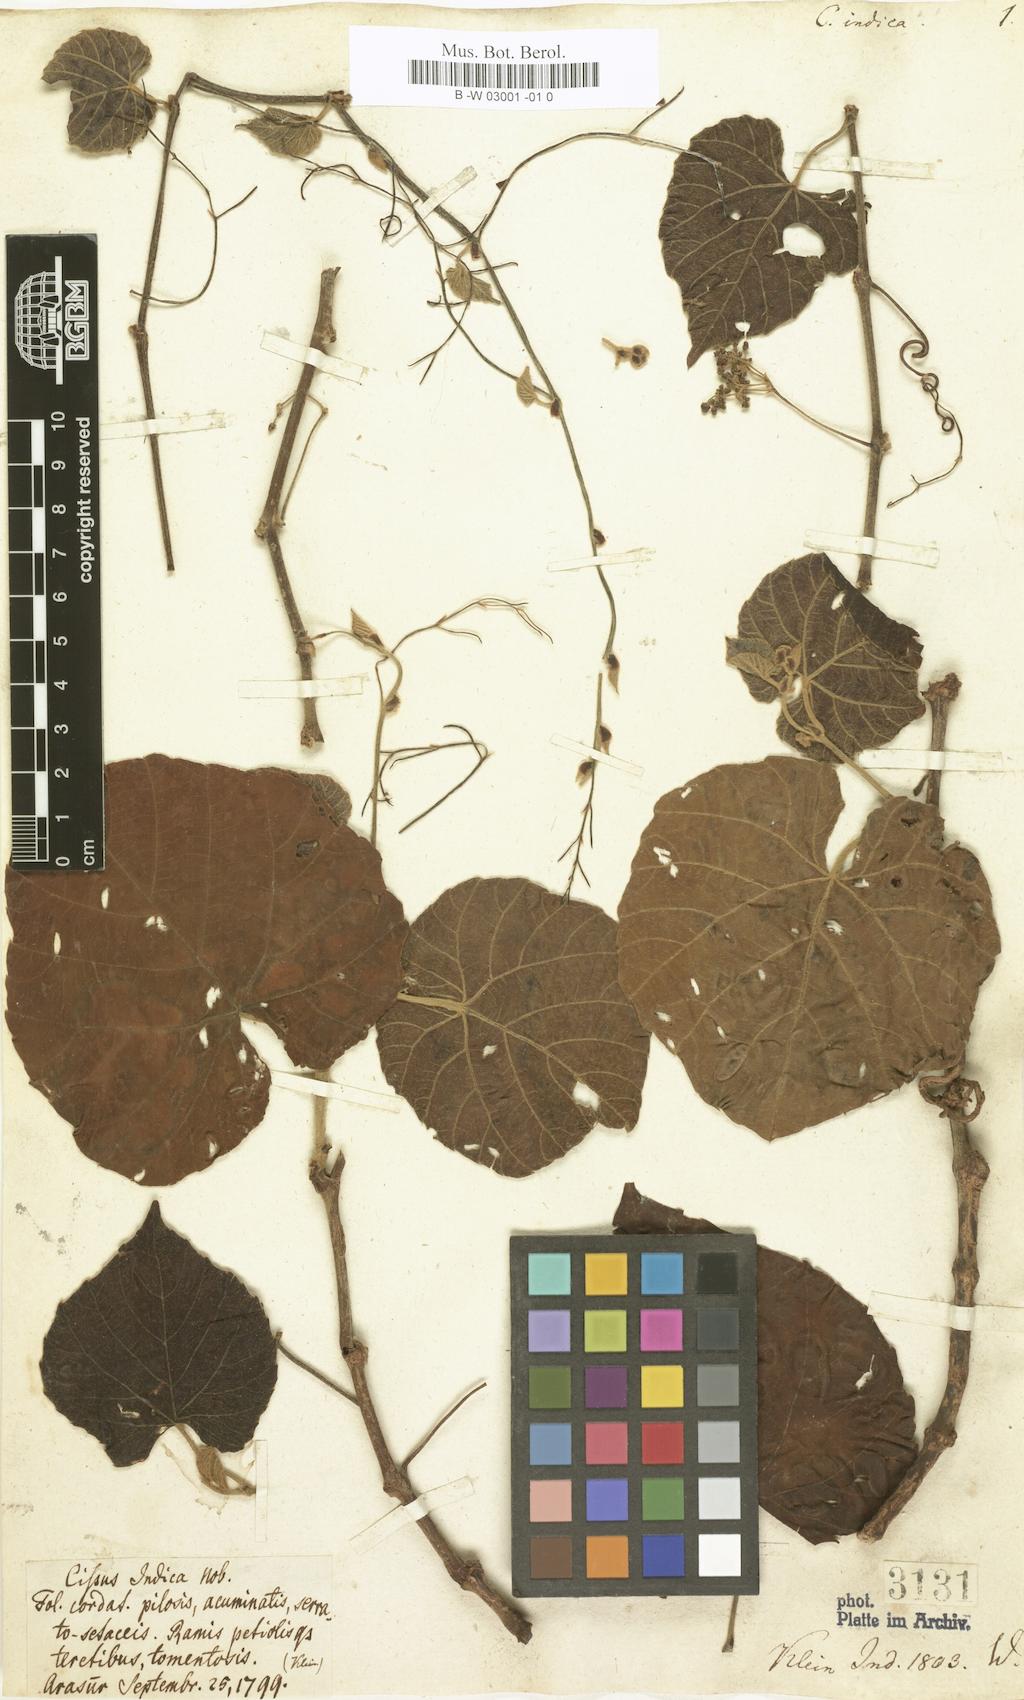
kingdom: Plantae
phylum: Tracheophyta
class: Magnoliopsida
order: Vitales
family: Vitaceae
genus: Cissus
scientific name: Cissus repanda
